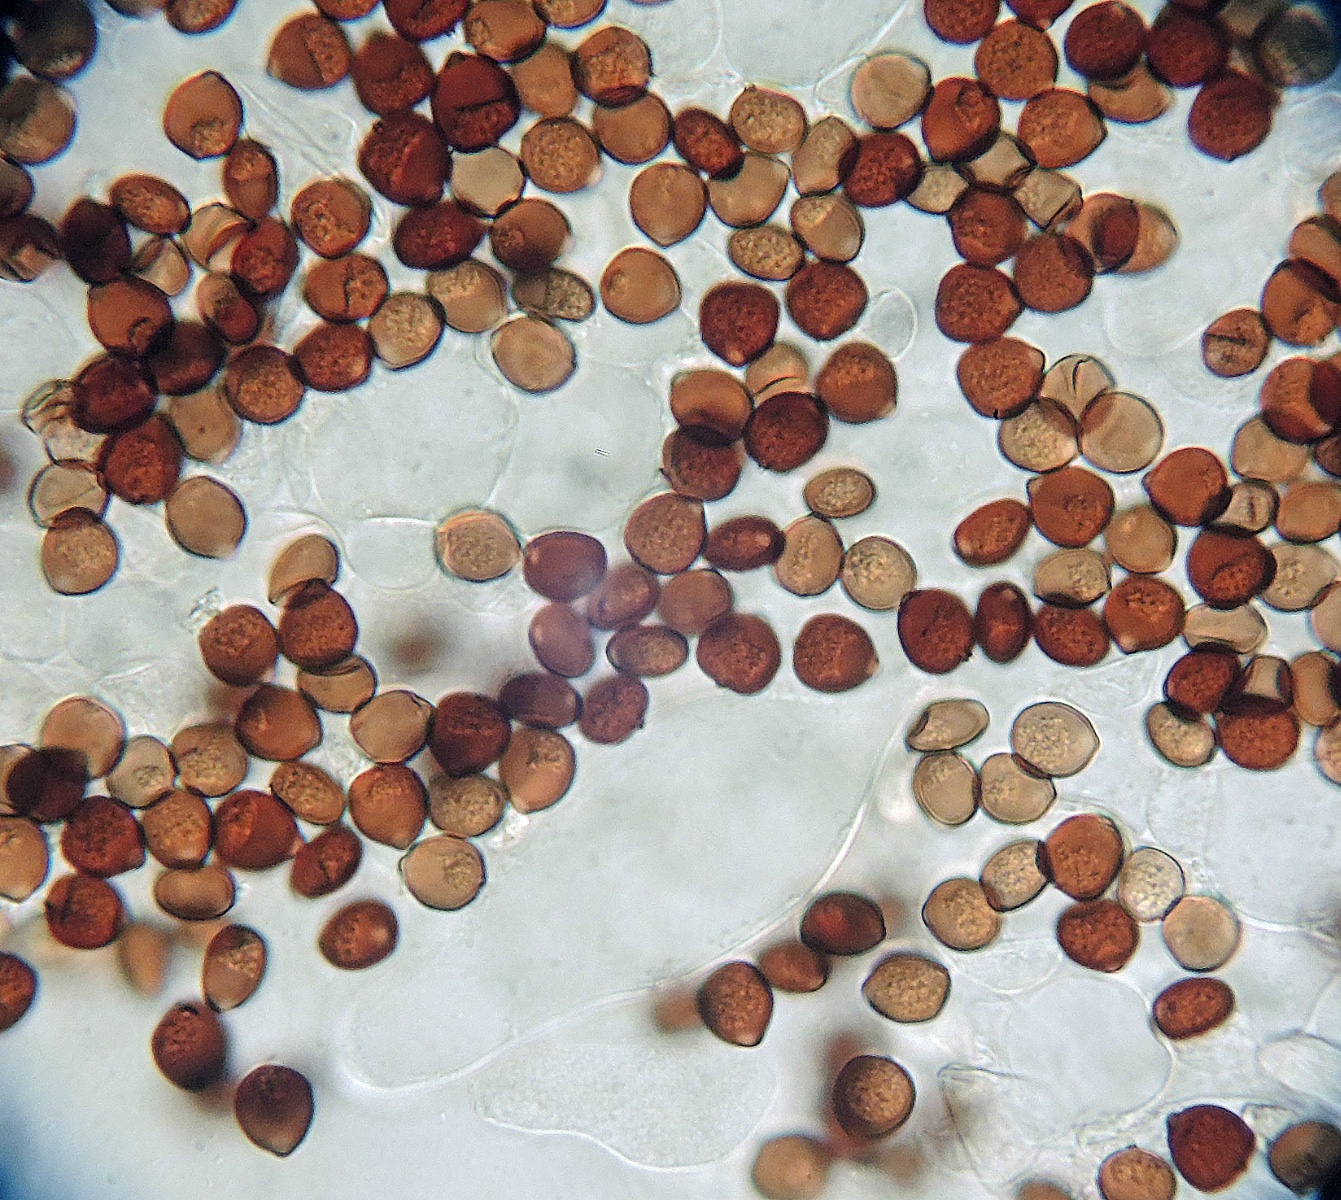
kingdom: Fungi
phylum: Basidiomycota
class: Agaricomycetes
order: Agaricales
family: Psathyrellaceae
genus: Parasola
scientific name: Parasola
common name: hjulhat
